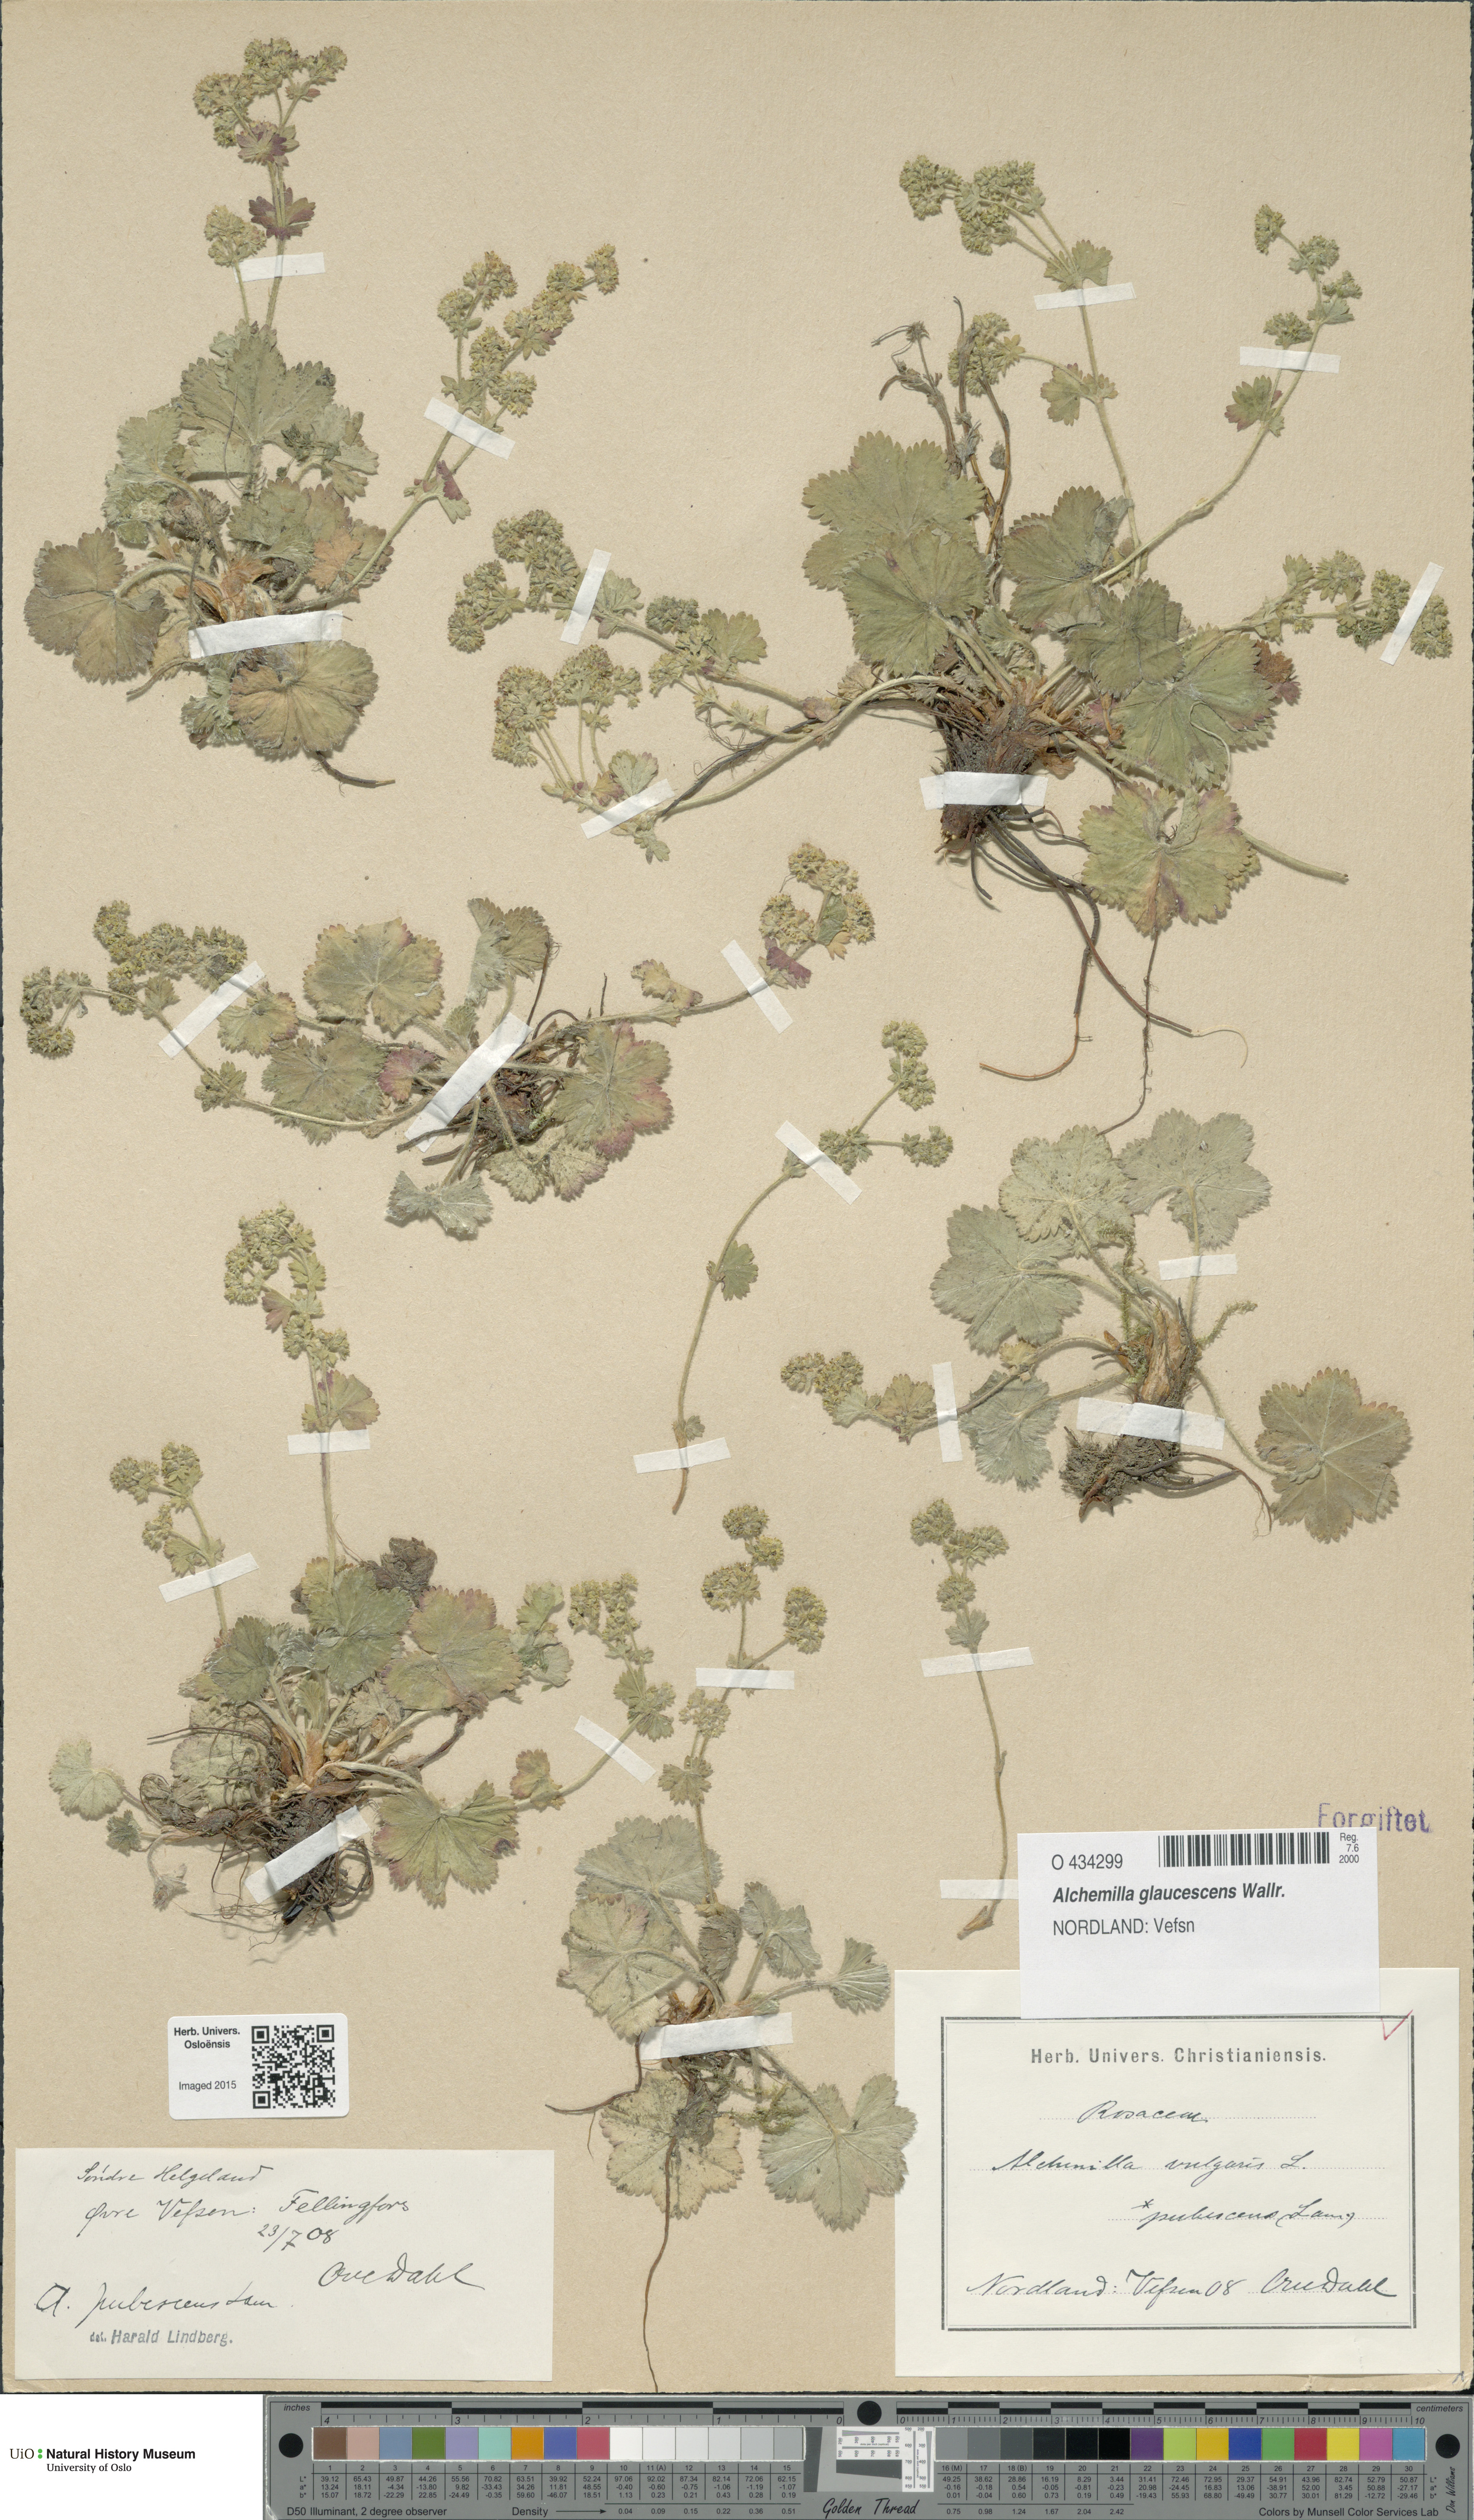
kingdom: Plantae
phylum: Tracheophyta
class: Magnoliopsida
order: Rosales
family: Rosaceae
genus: Alchemilla
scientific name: Alchemilla glaucescens
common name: Silky lady's mantle
